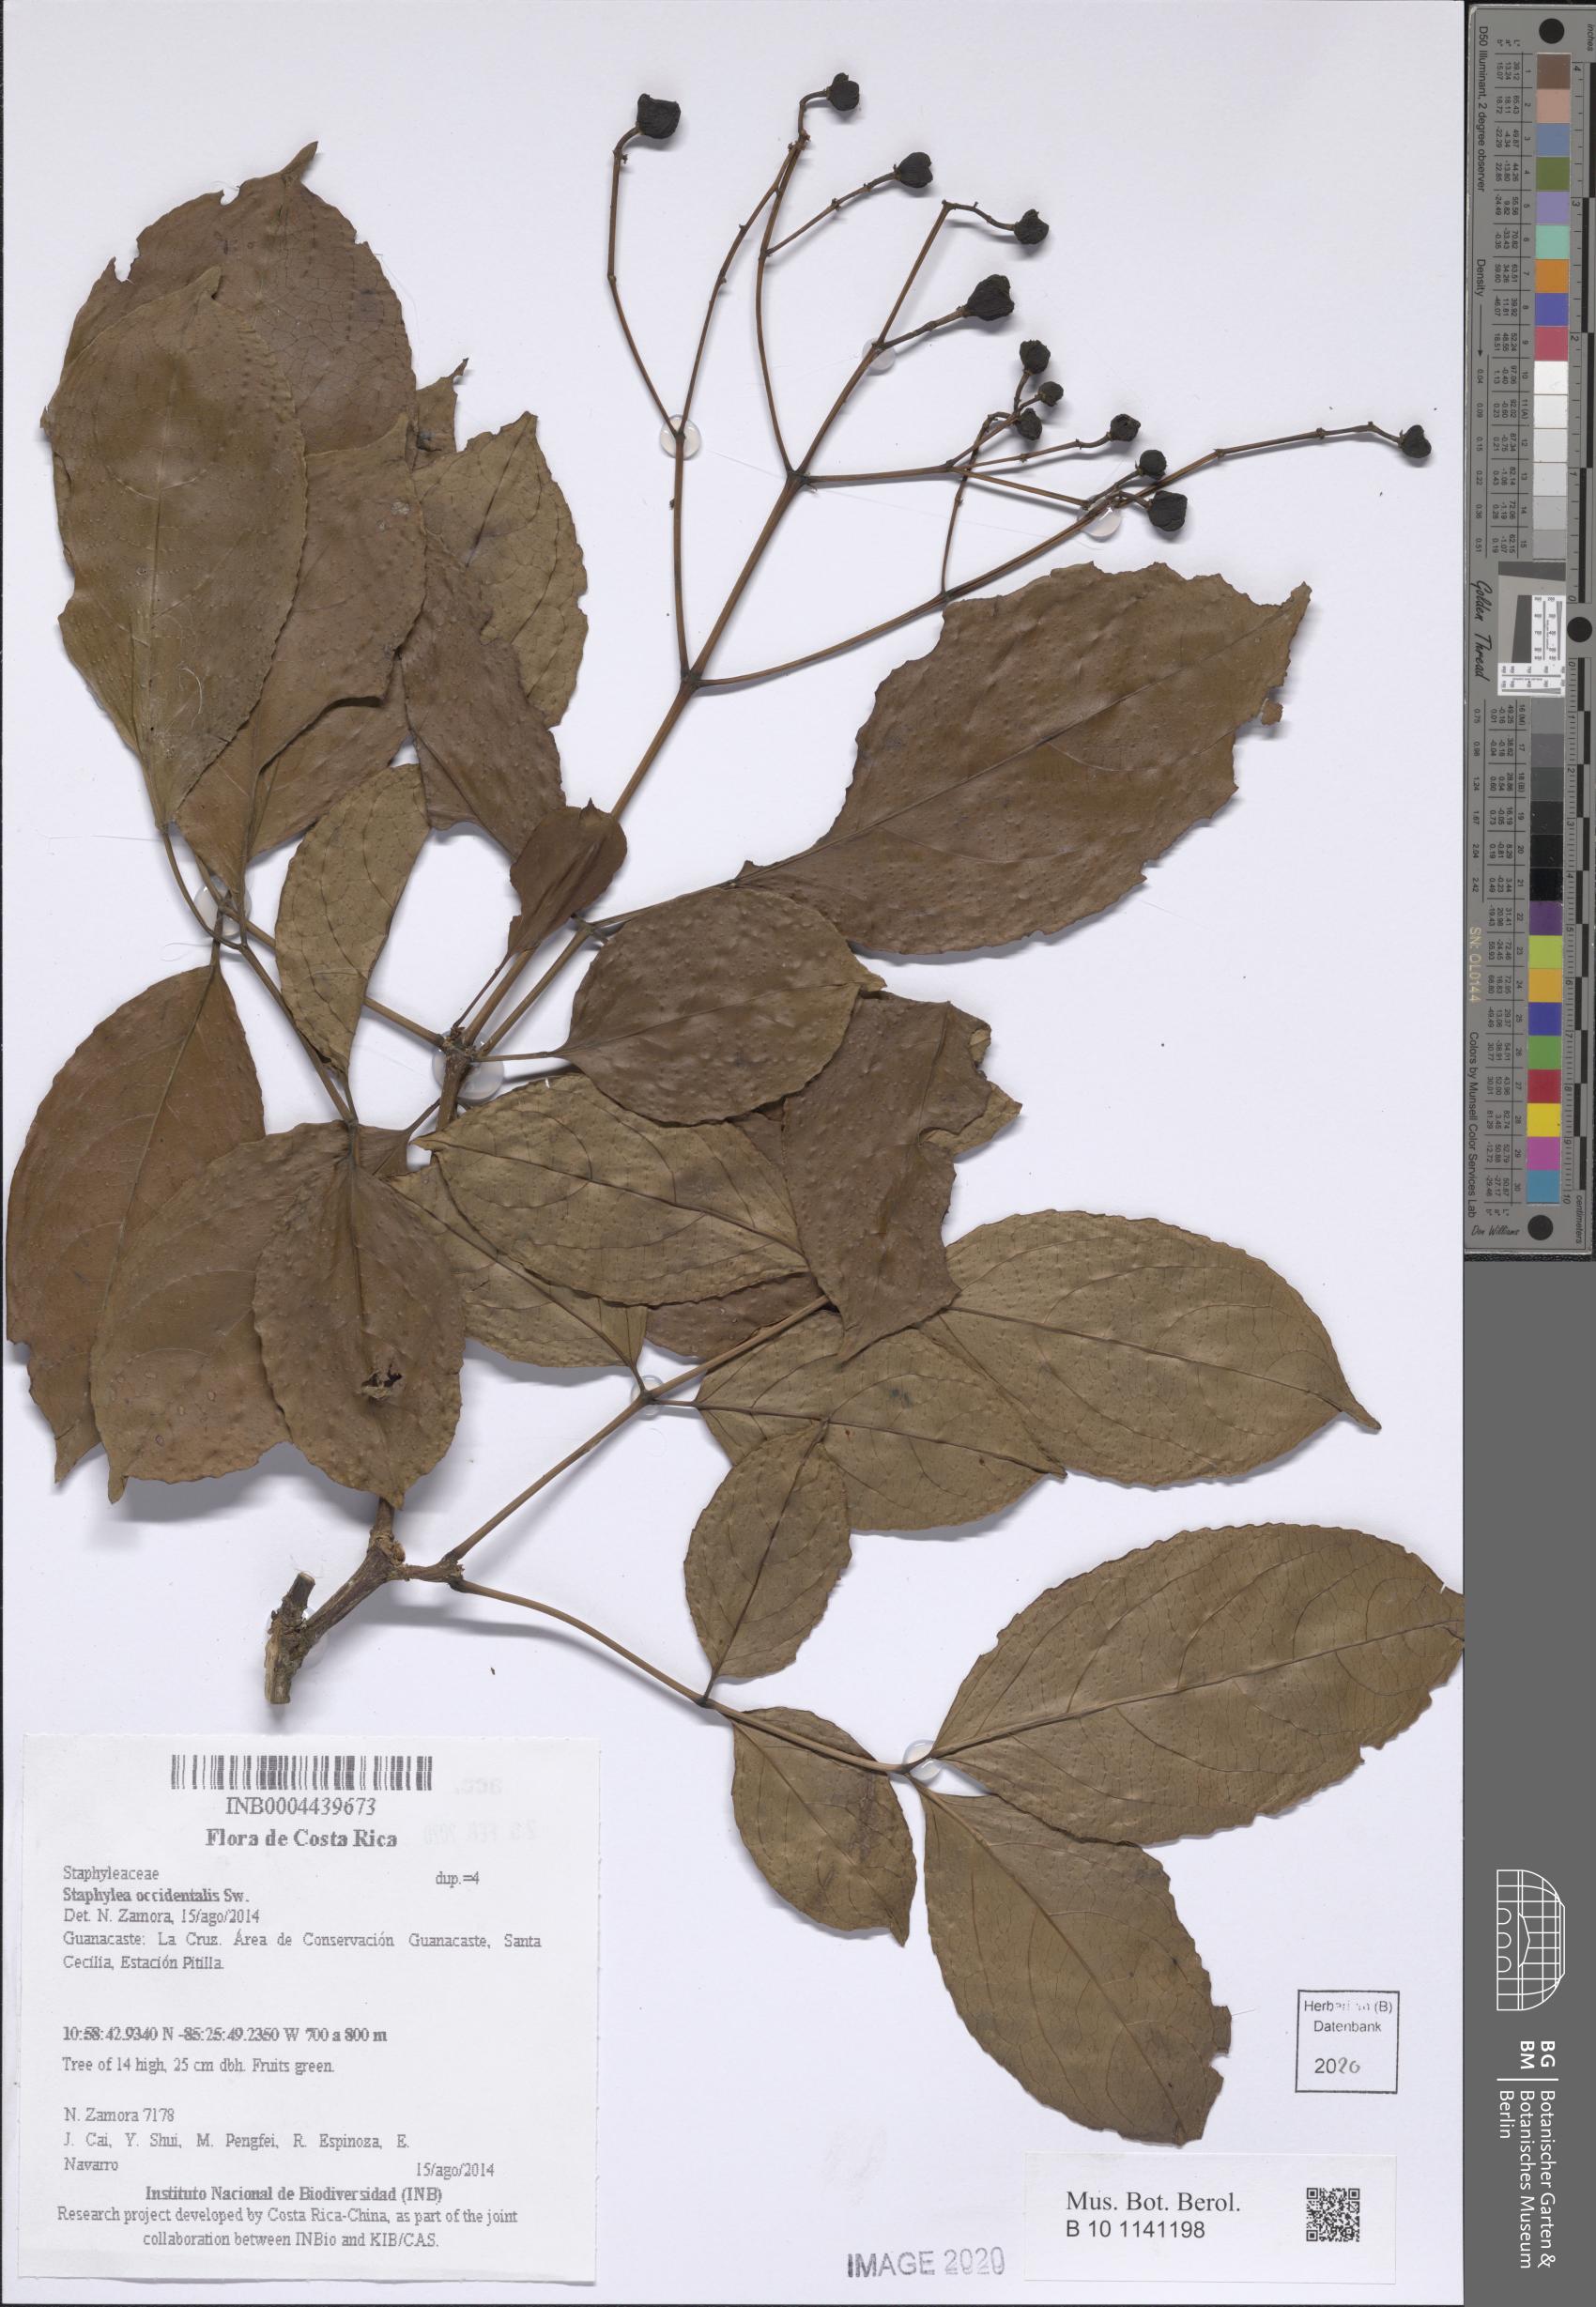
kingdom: Plantae
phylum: Tracheophyta
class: Magnoliopsida
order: Crossosomatales
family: Staphyleaceae
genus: Turpinia
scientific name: Turpinia occidentalis
